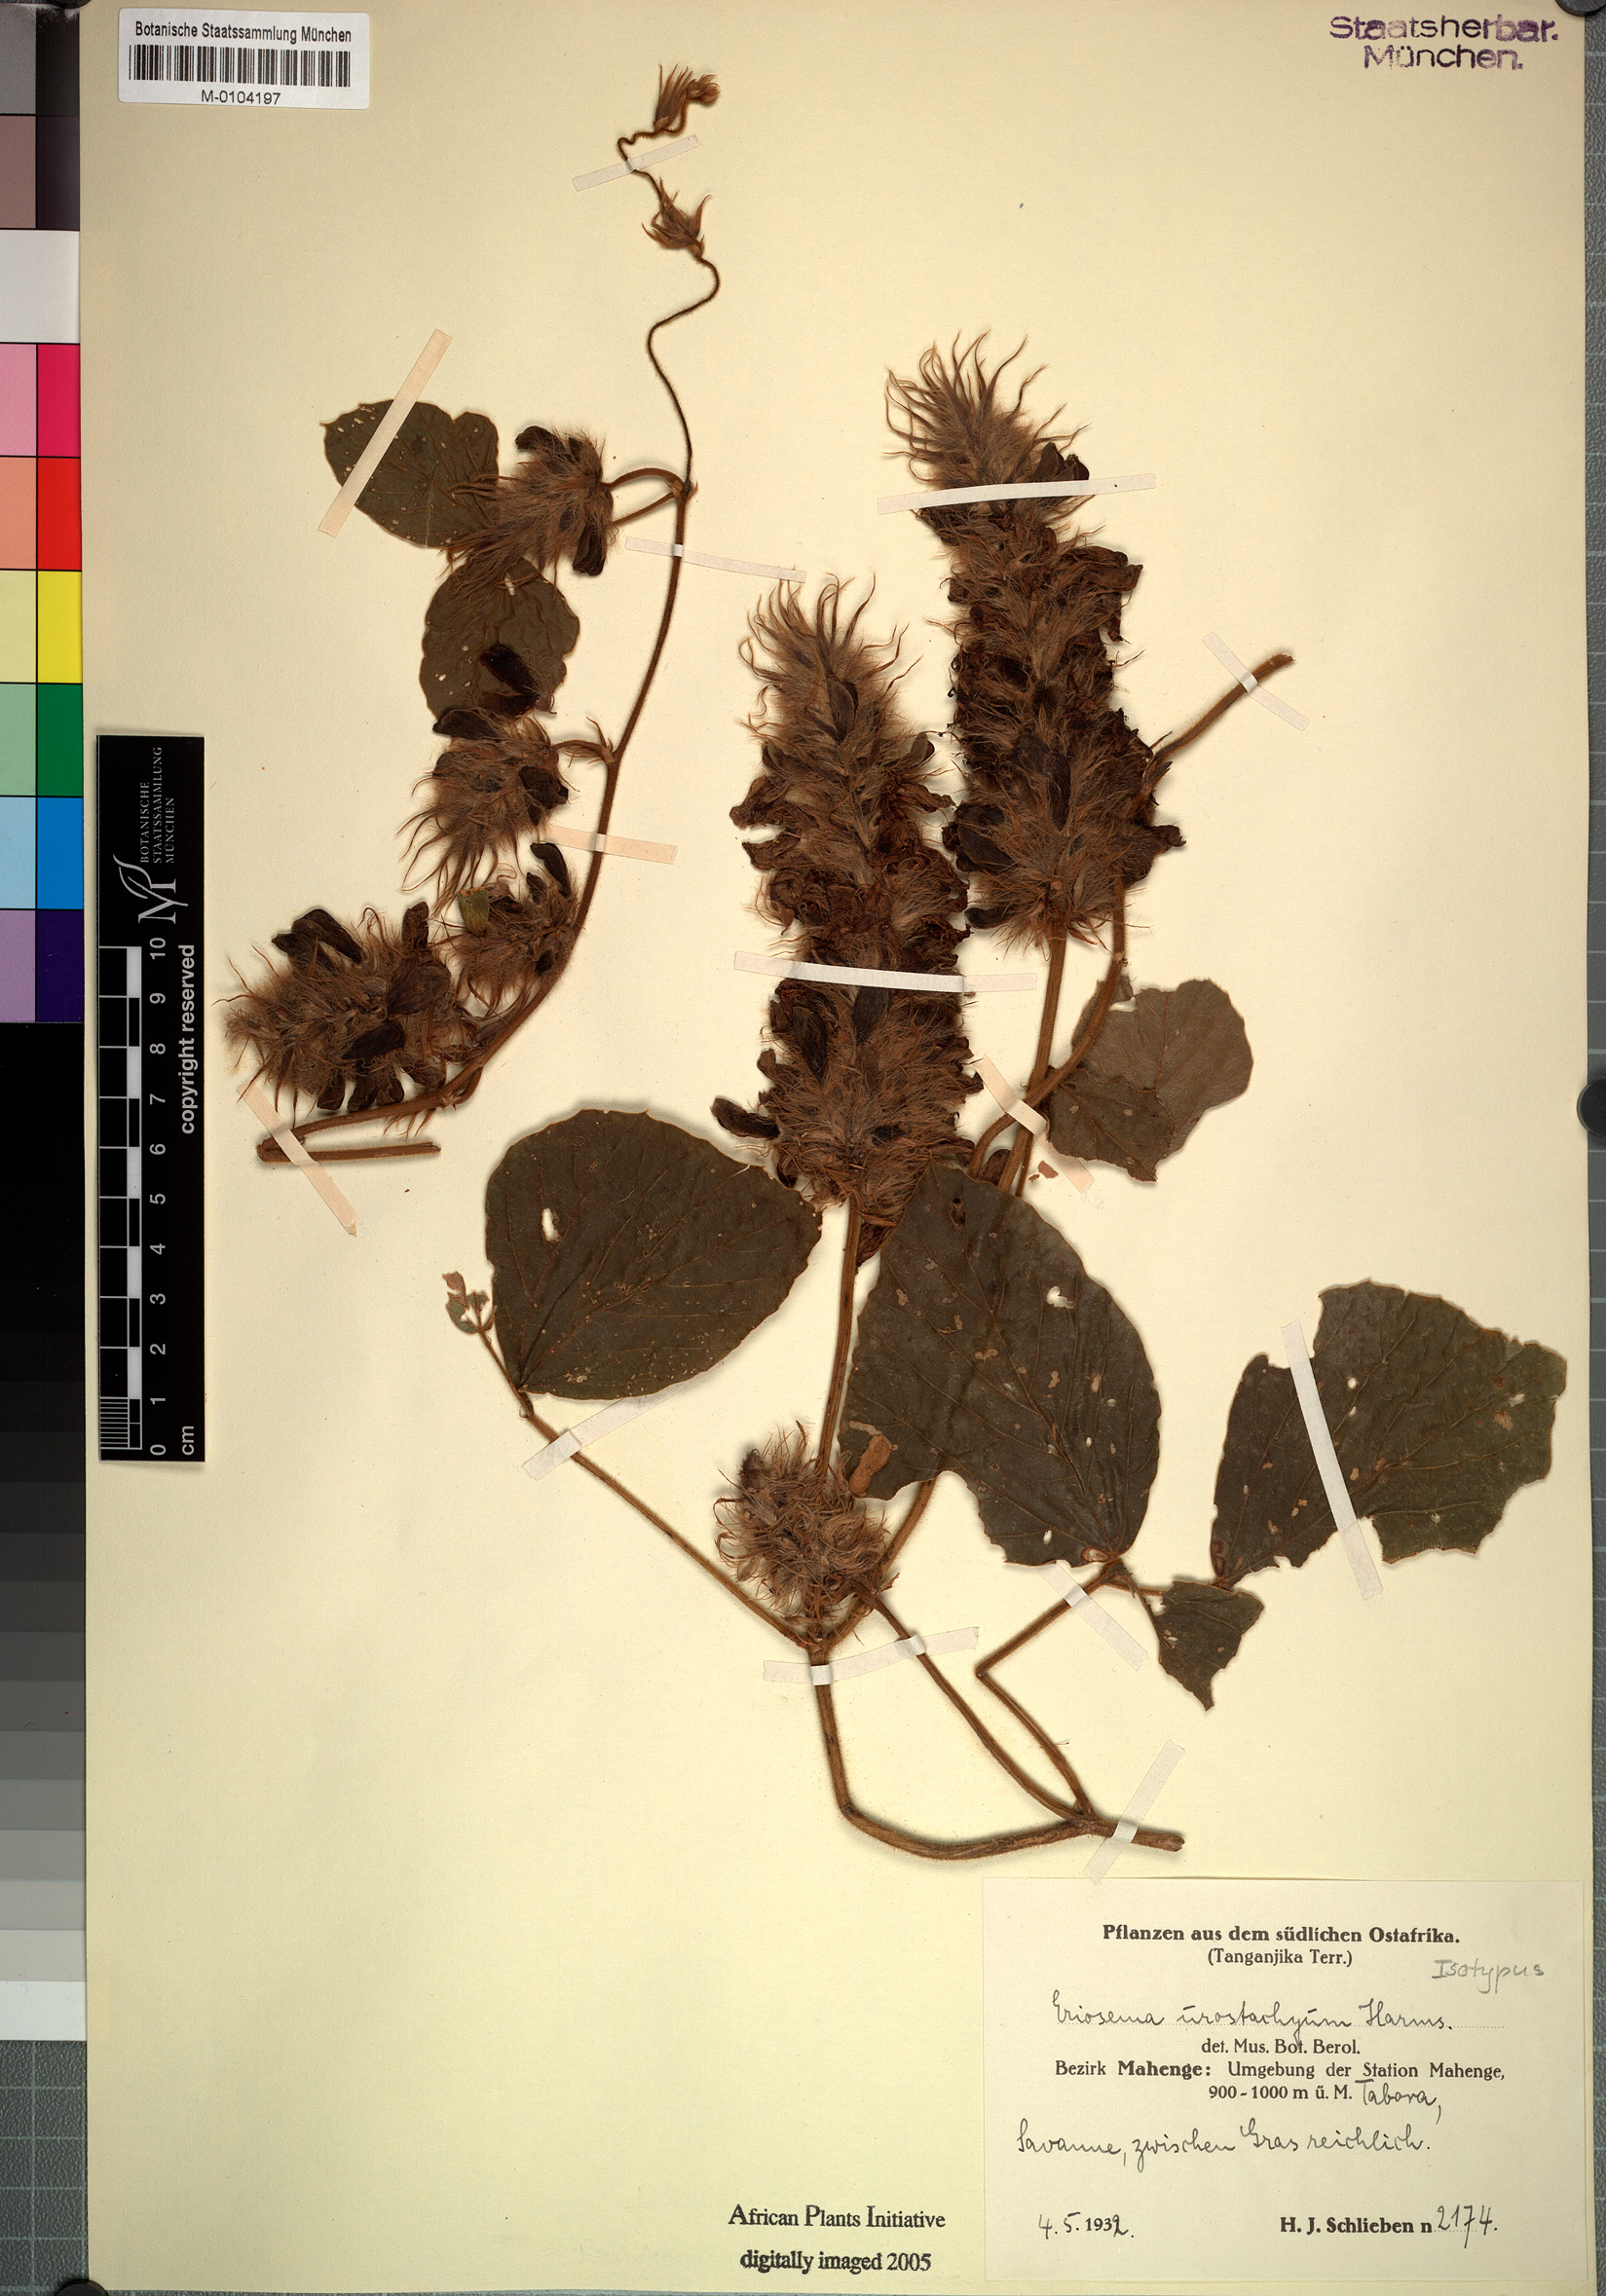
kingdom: Plantae
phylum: Tracheophyta
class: Magnoliopsida
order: Fabales
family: Fabaceae
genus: Pseudeminia
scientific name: Pseudeminia comosa
